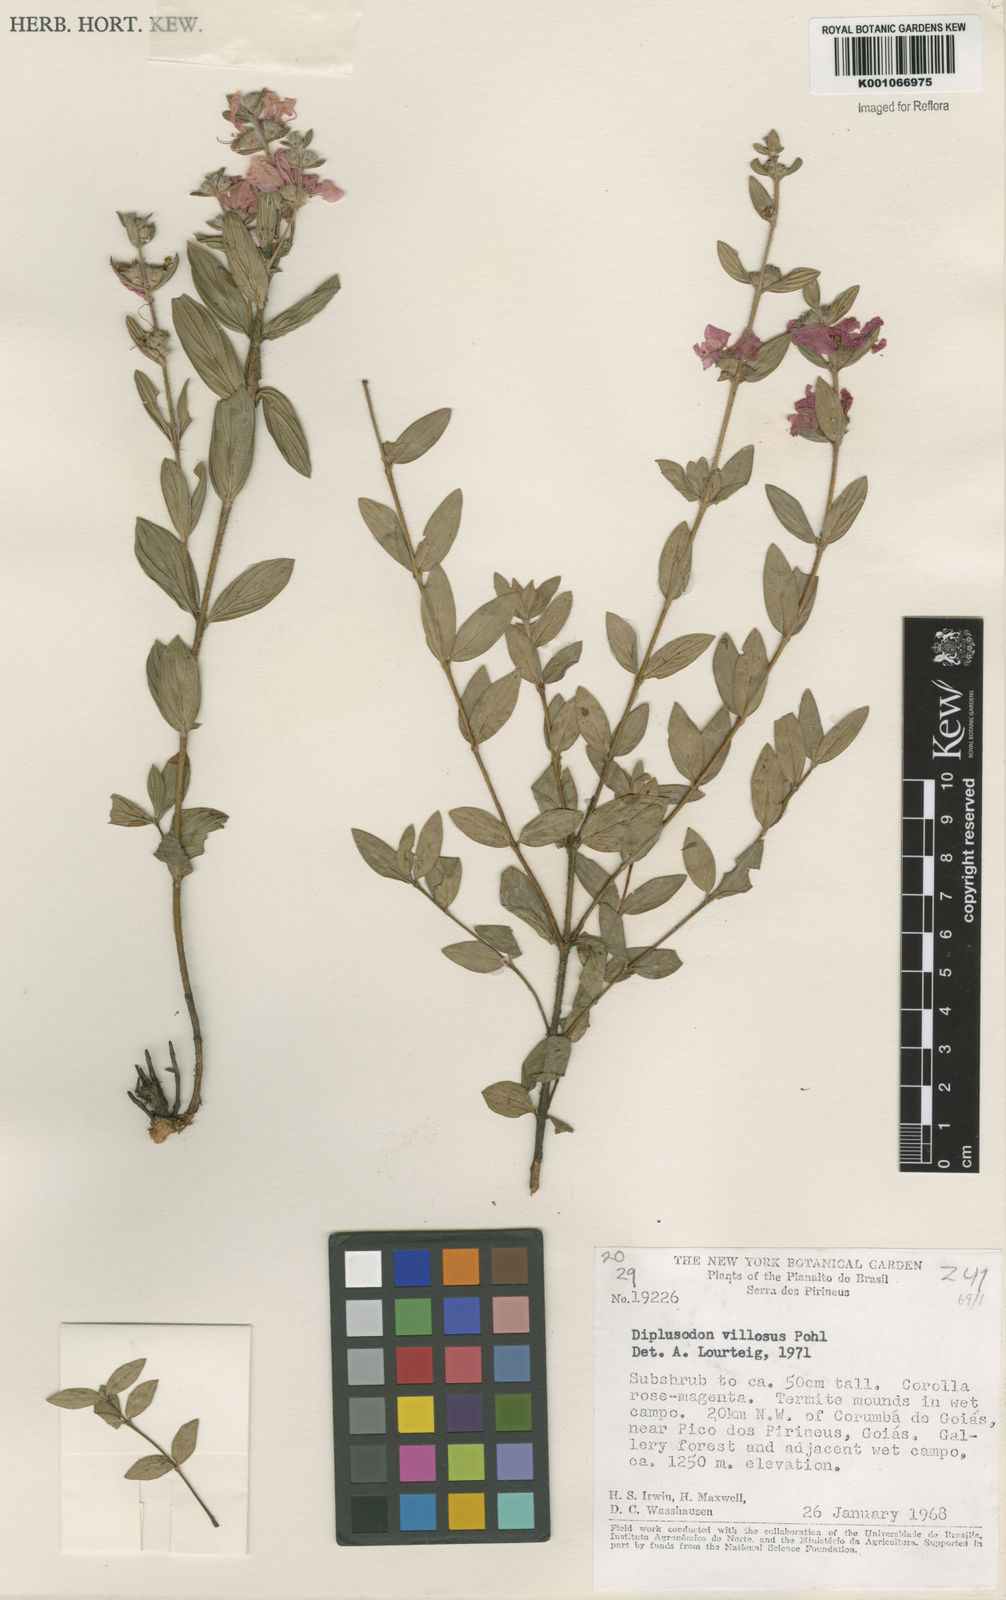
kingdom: Plantae
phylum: Tracheophyta
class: Magnoliopsida
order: Myrtales
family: Lythraceae
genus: Diplusodon
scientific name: Diplusodon villosus
